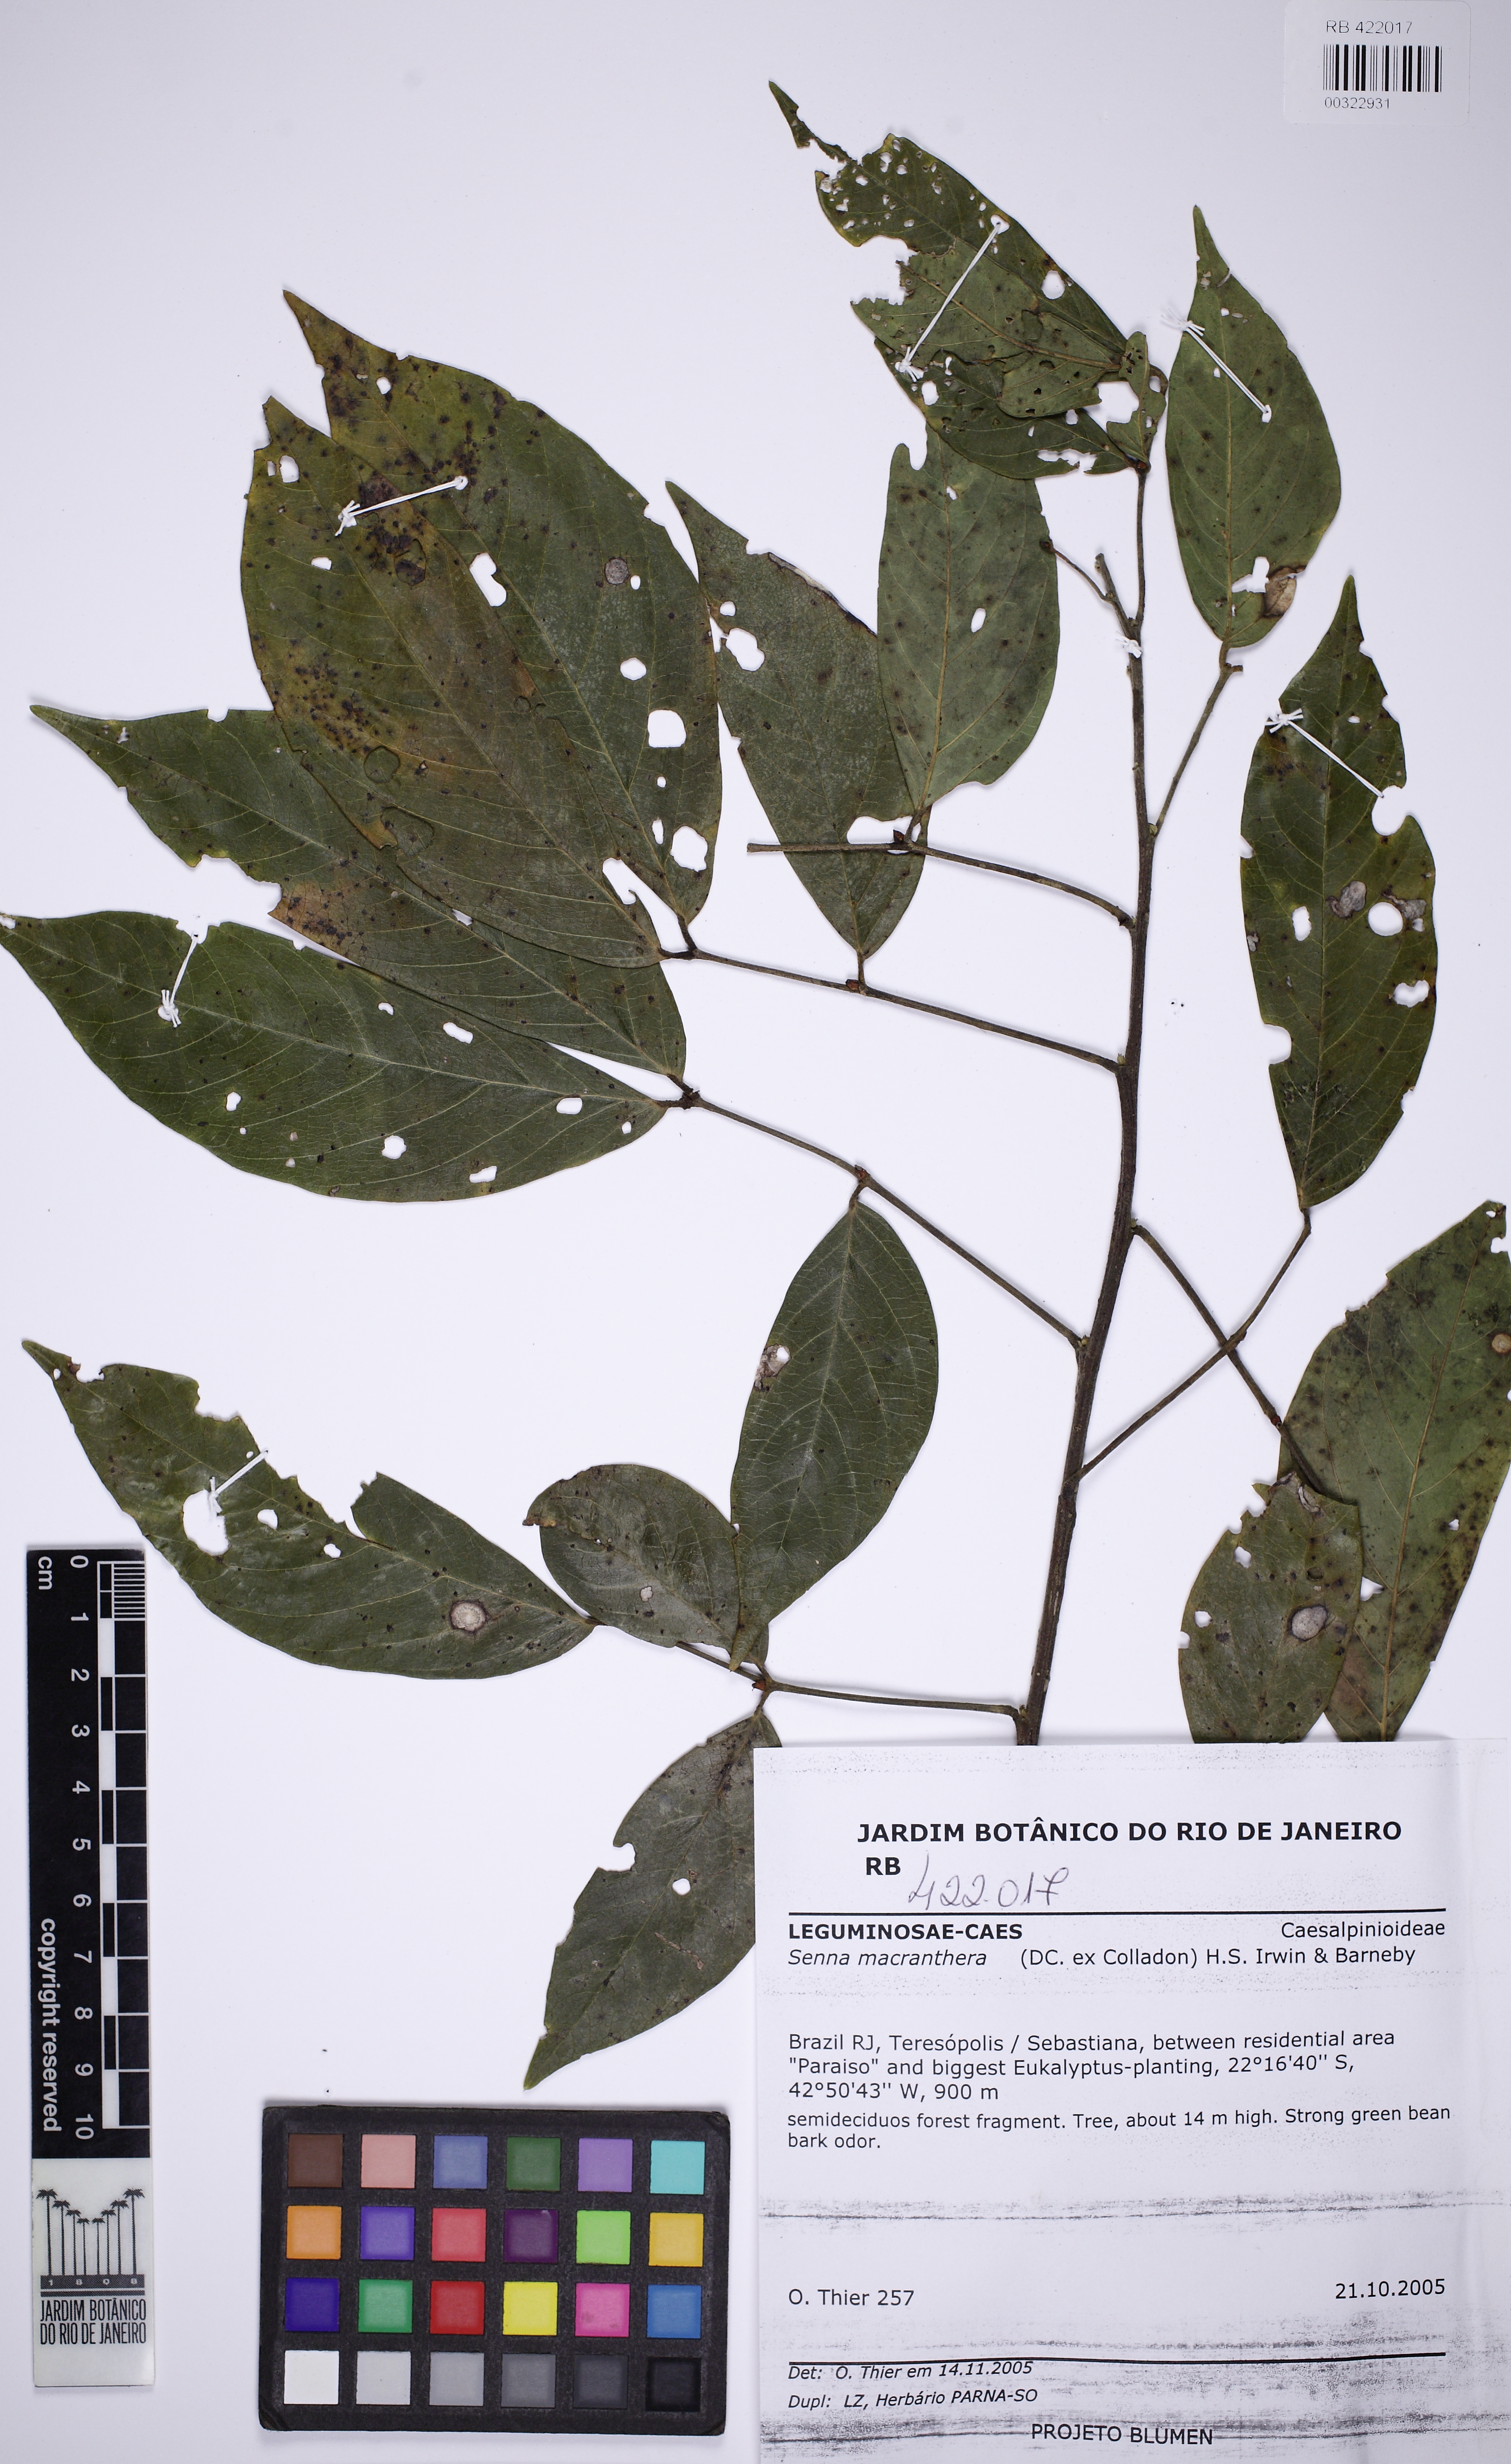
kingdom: Plantae
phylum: Tracheophyta
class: Magnoliopsida
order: Fabales
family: Fabaceae
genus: Senna
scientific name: Senna macranthera
